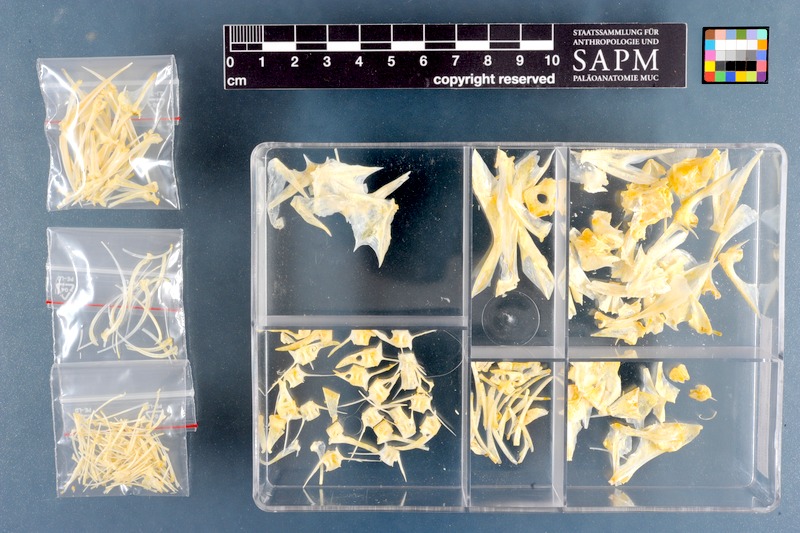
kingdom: Animalia
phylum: Chordata
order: Scorpaeniformes
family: Sebastidae
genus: Helicolenus
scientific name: Helicolenus dactylopterus
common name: Blackbelly rosefish
